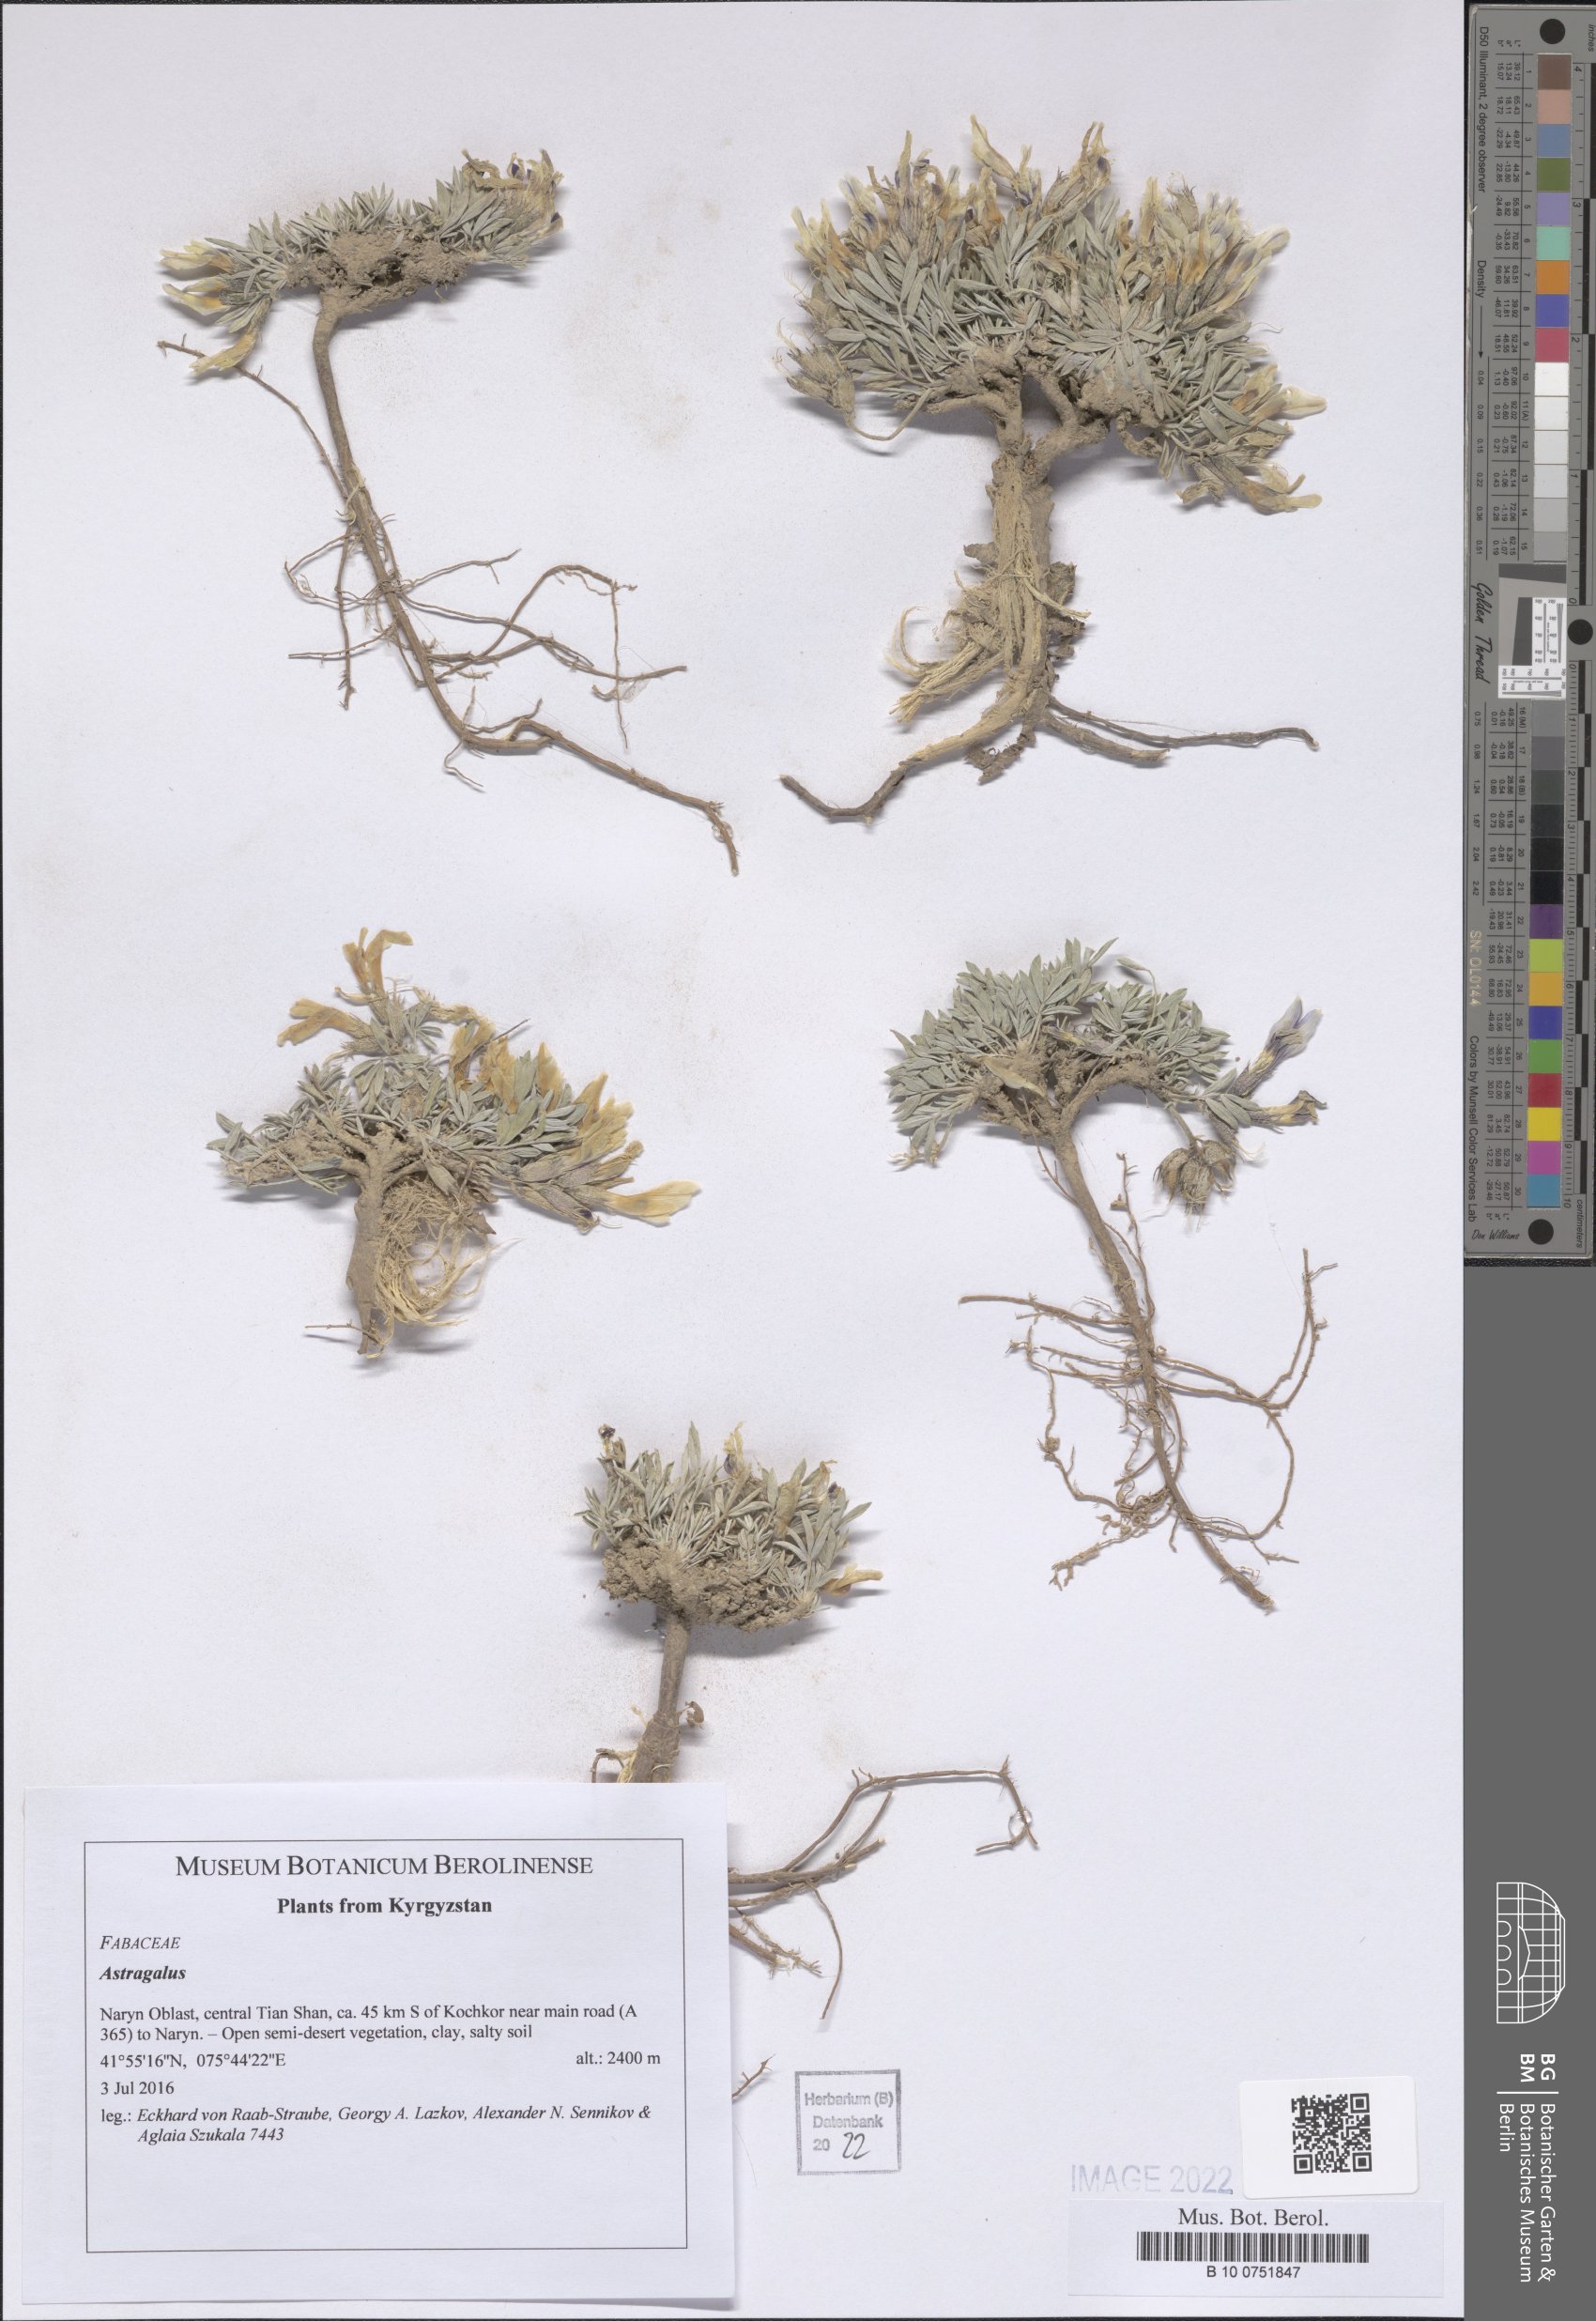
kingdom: Plantae
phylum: Tracheophyta
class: Magnoliopsida
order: Fabales
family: Fabaceae
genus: Astragalus
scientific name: Astragalus
